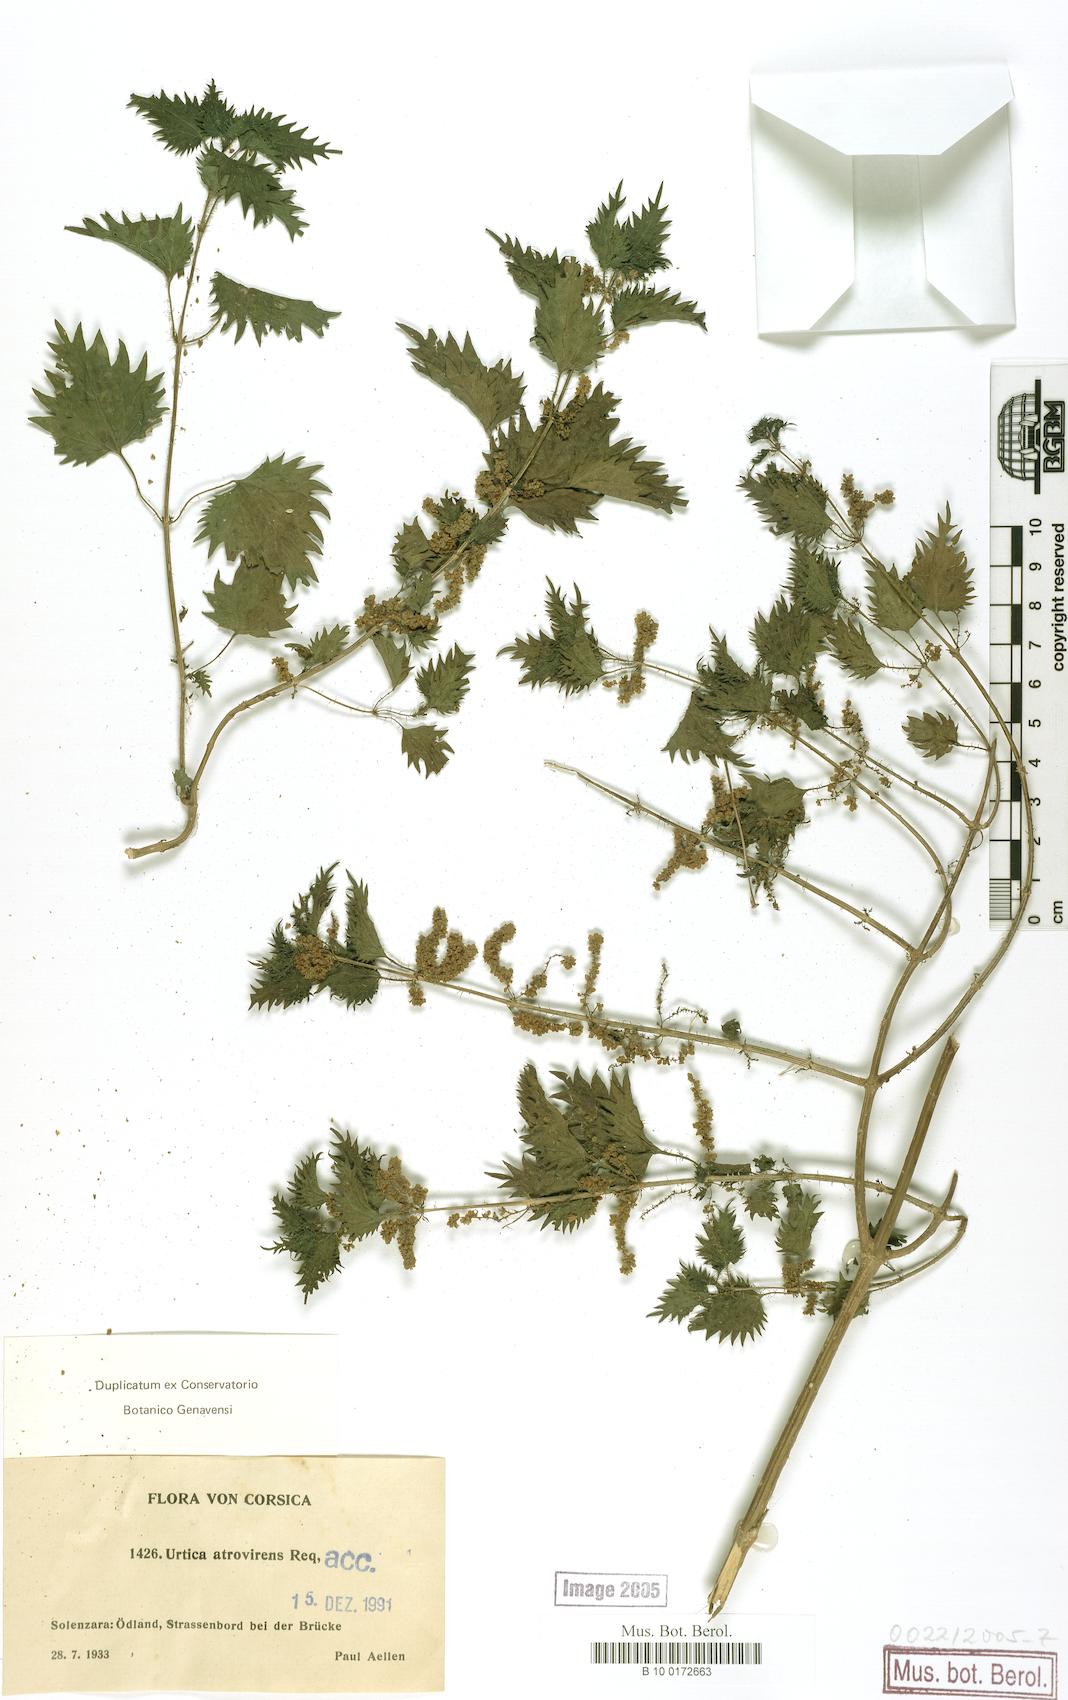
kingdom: Plantae
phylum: Tracheophyta
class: Magnoliopsida
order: Rosales
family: Urticaceae
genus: Urtica
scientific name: Urtica atrovirens
